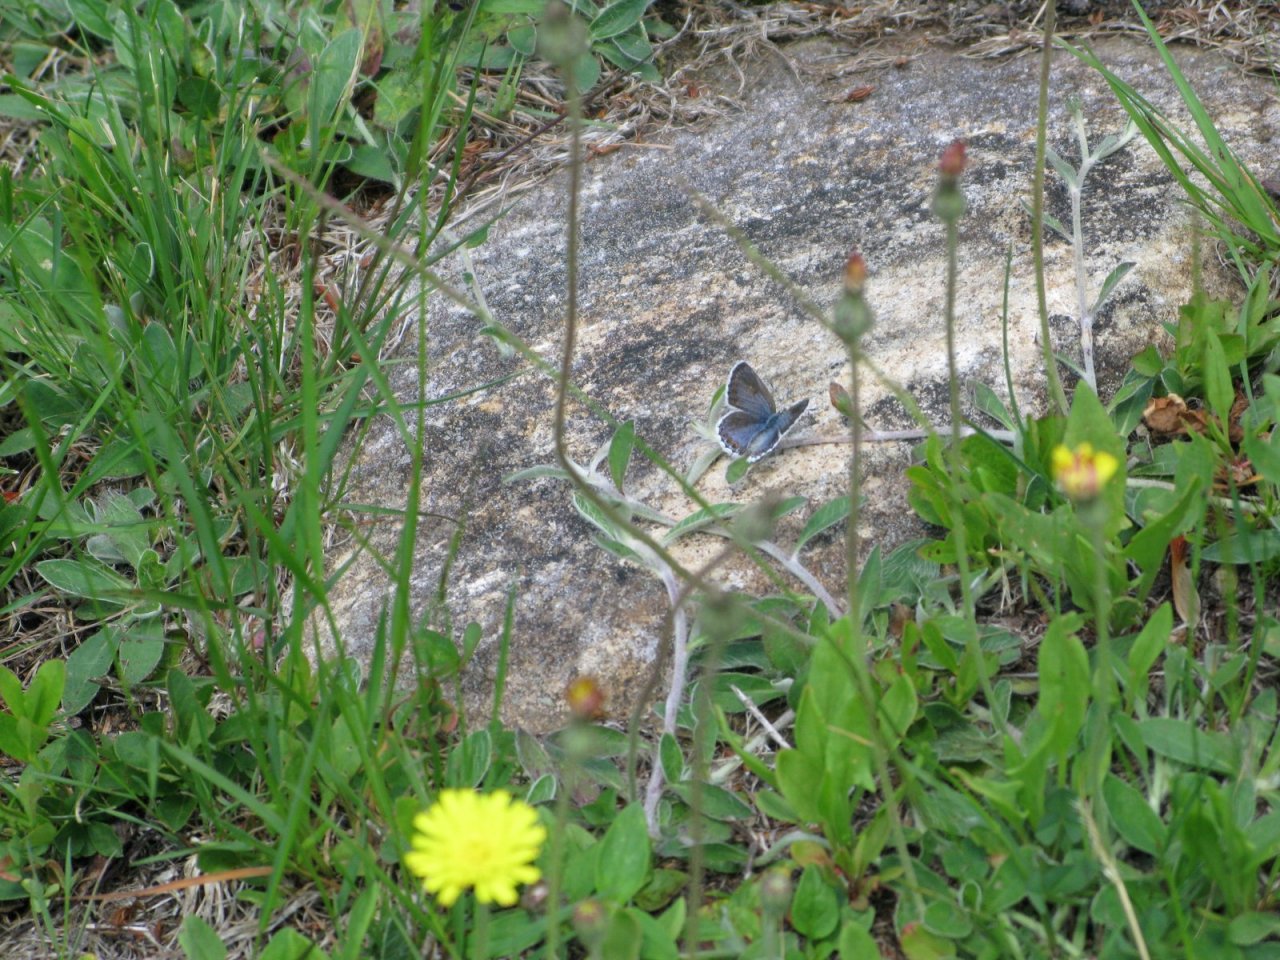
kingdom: Animalia
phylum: Arthropoda
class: Insecta
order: Lepidoptera
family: Lycaenidae
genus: Lycaeides
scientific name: Lycaeides idas
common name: Northern Blue
